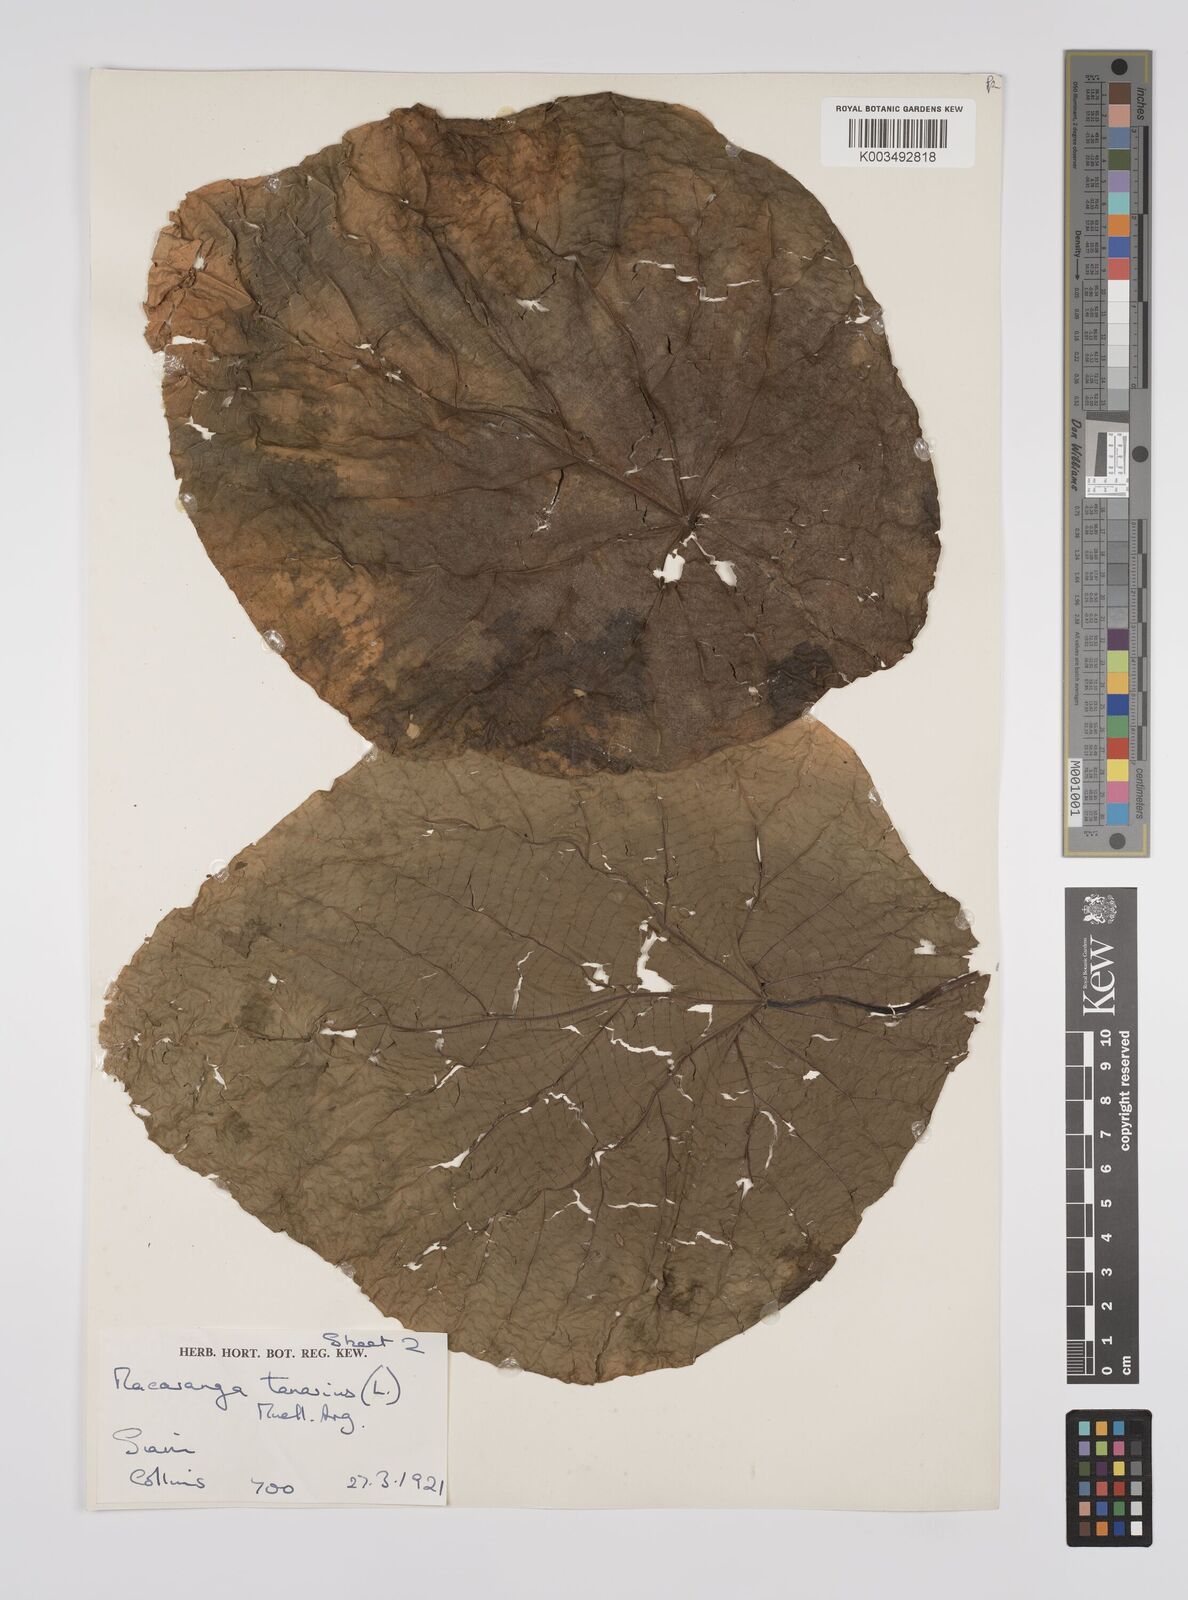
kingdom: Plantae
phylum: Tracheophyta
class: Magnoliopsida
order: Malpighiales
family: Euphorbiaceae
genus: Macaranga
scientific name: Macaranga tanarius
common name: Parasol leaf tree
